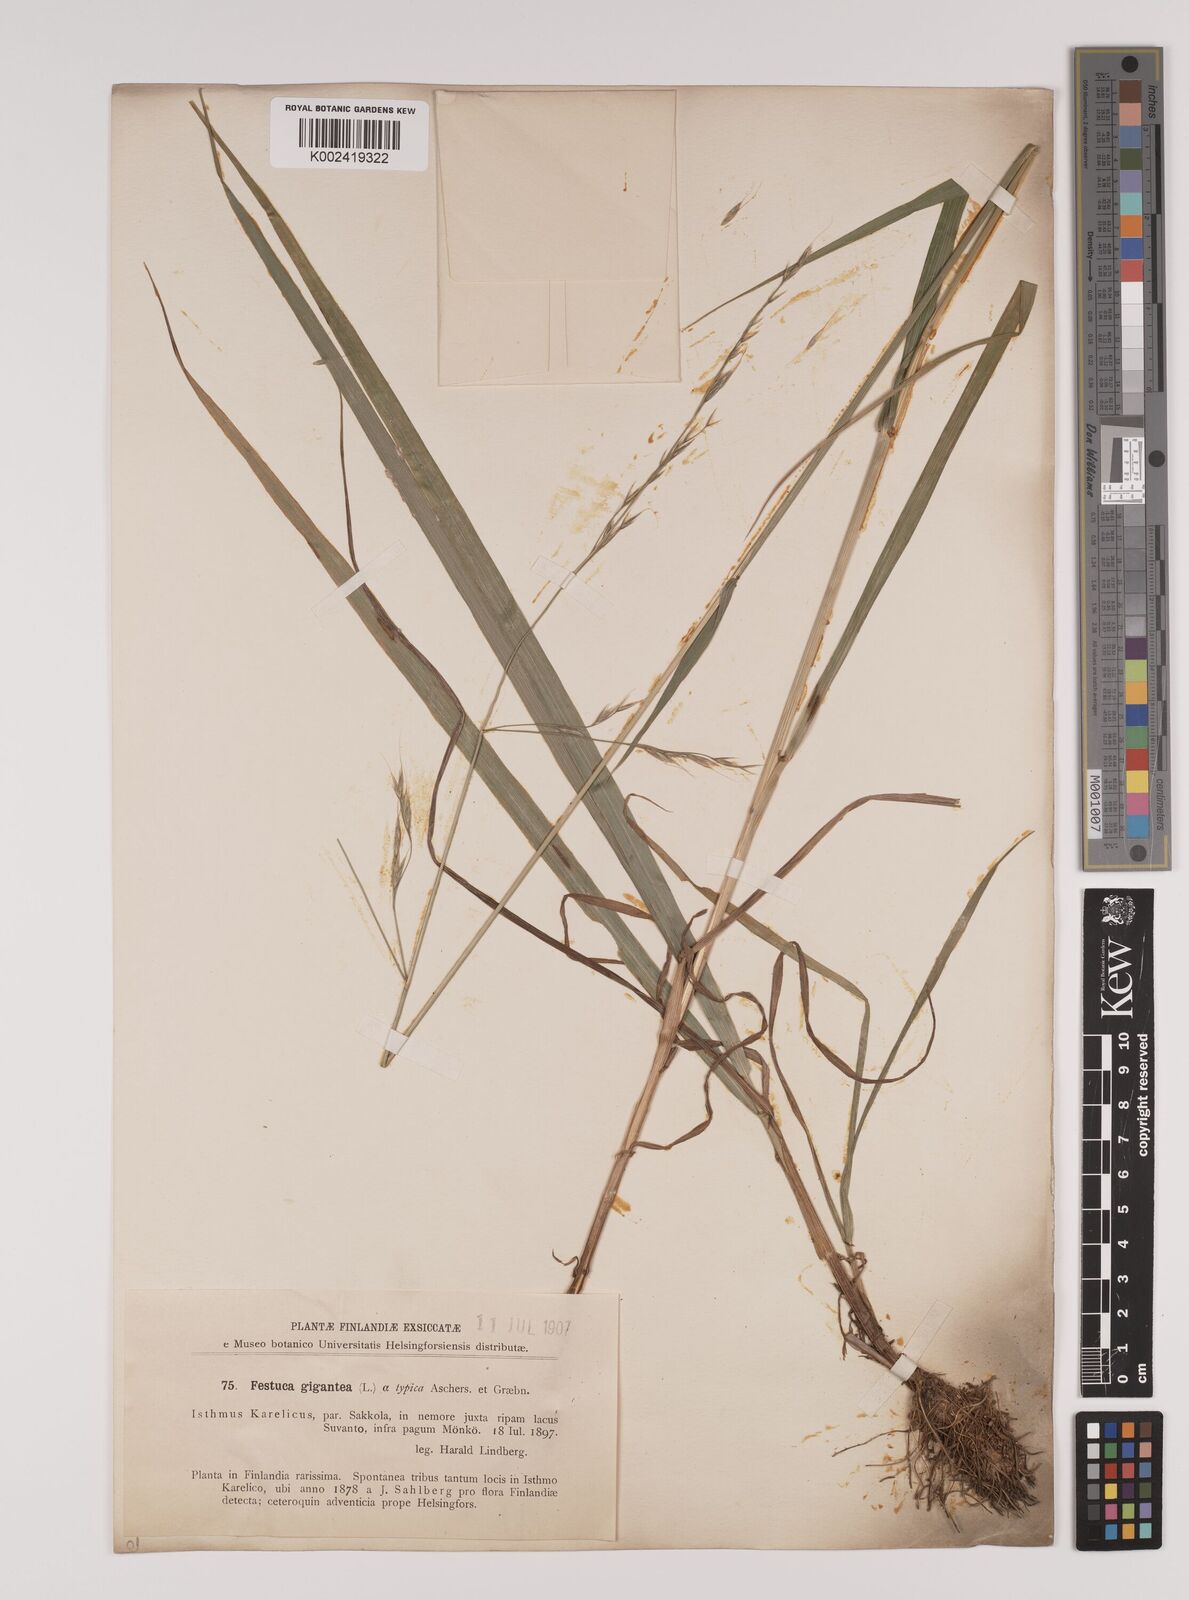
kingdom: Plantae
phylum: Tracheophyta
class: Liliopsida
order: Poales
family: Poaceae
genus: Lolium
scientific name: Lolium giganteum
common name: Giant fescue
